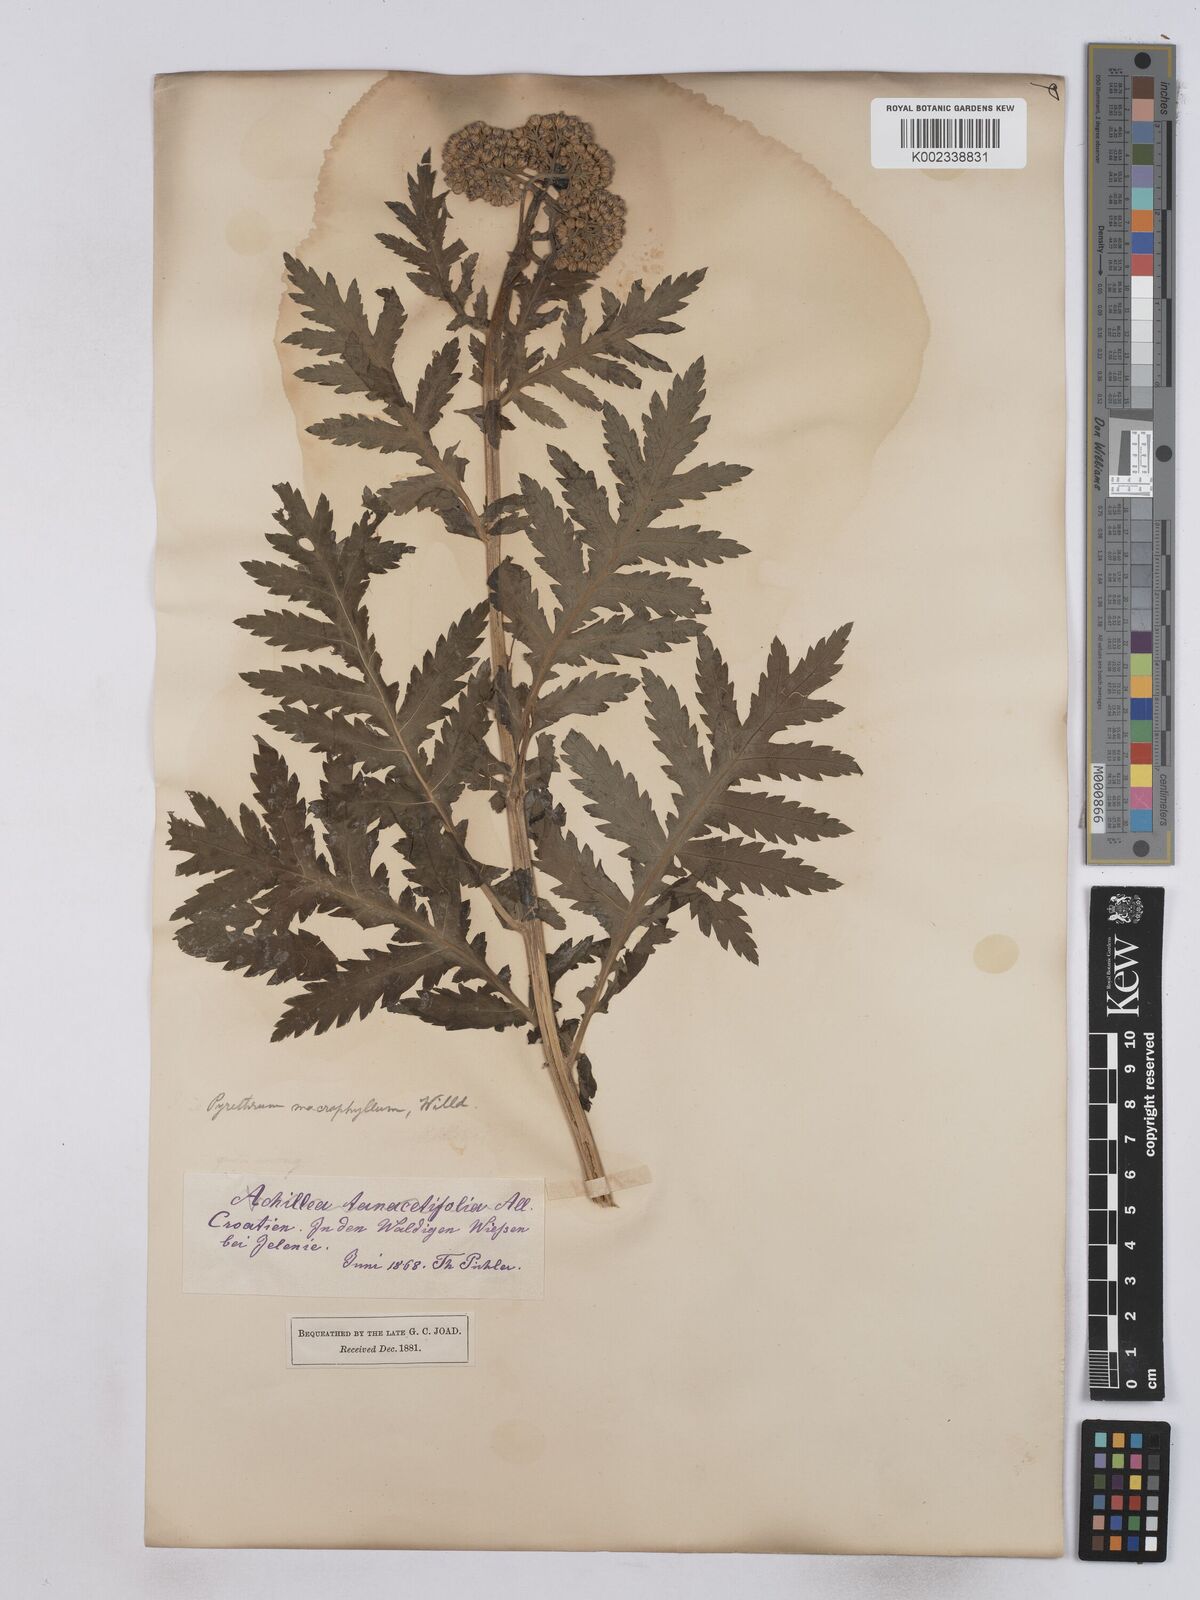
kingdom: Plantae
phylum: Tracheophyta
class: Magnoliopsida
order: Asterales
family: Asteraceae
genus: Tanacetum
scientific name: Tanacetum macrophyllum
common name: Rayed tansy
